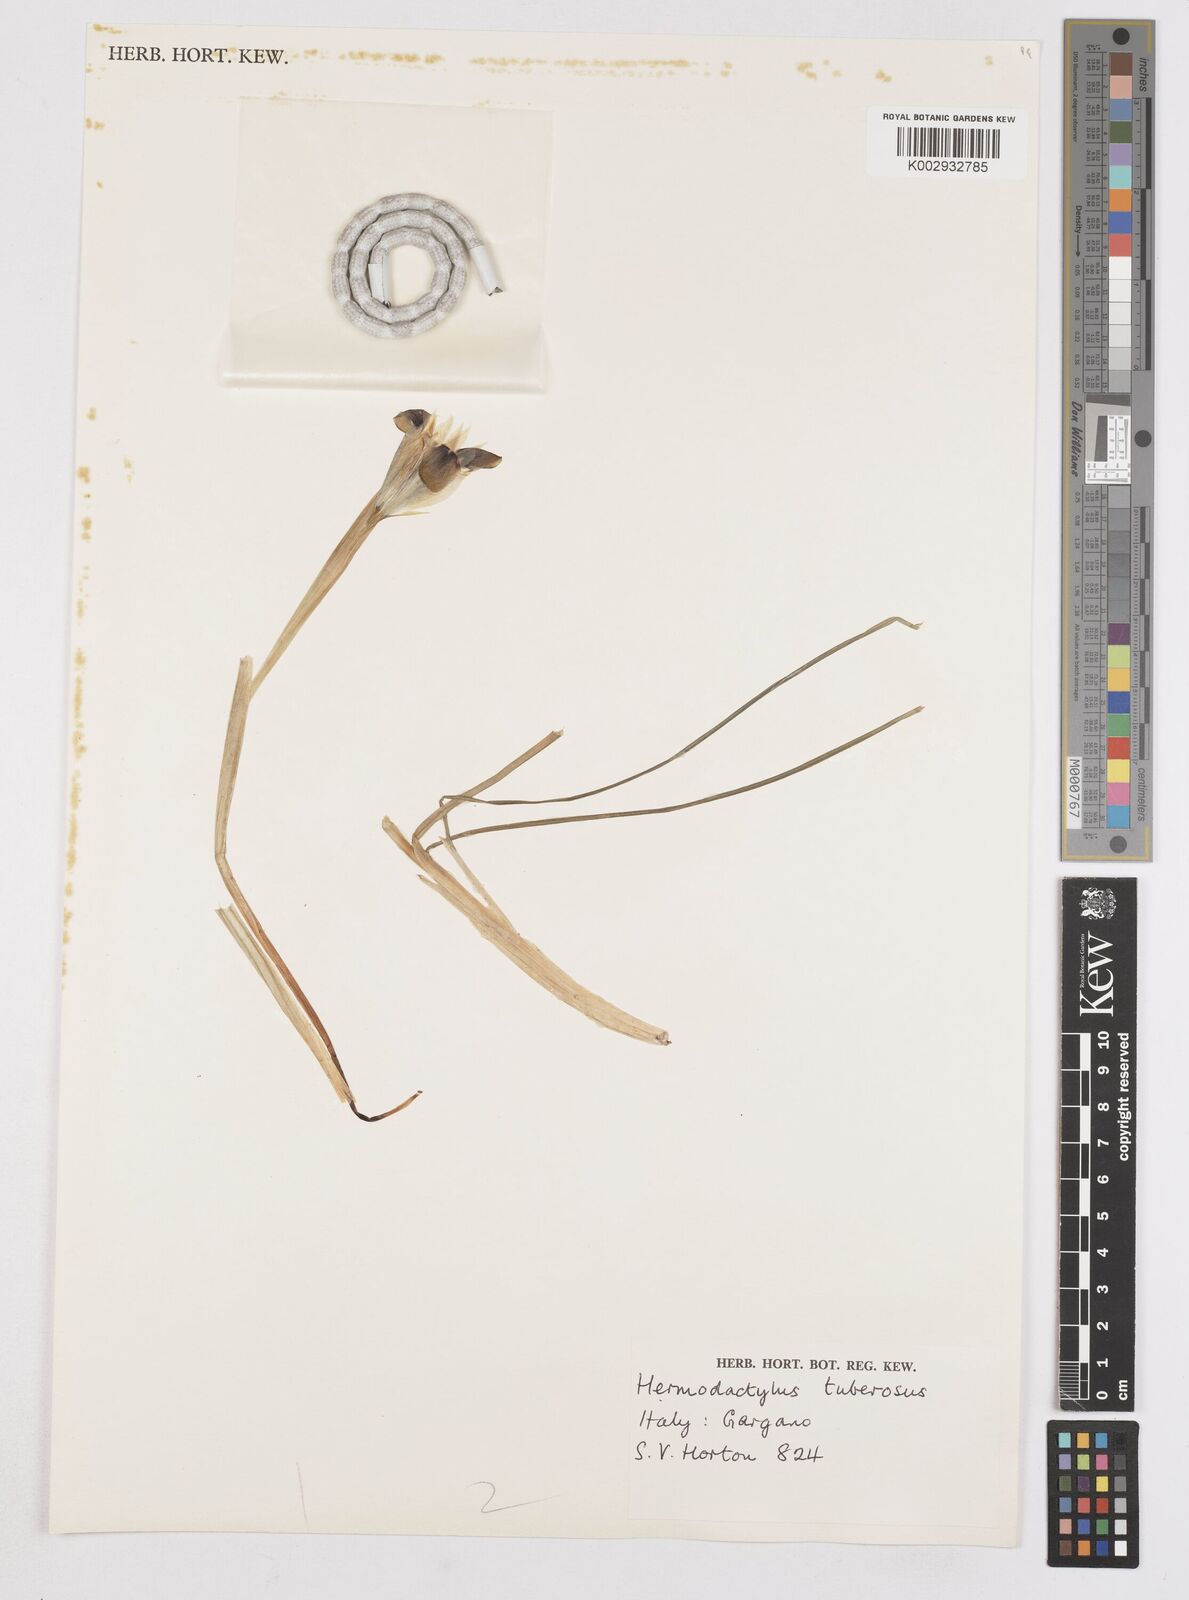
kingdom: Plantae
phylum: Tracheophyta
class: Liliopsida
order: Asparagales
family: Iridaceae
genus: Iris
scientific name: Iris tuberosa
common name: Snake's-head iris
